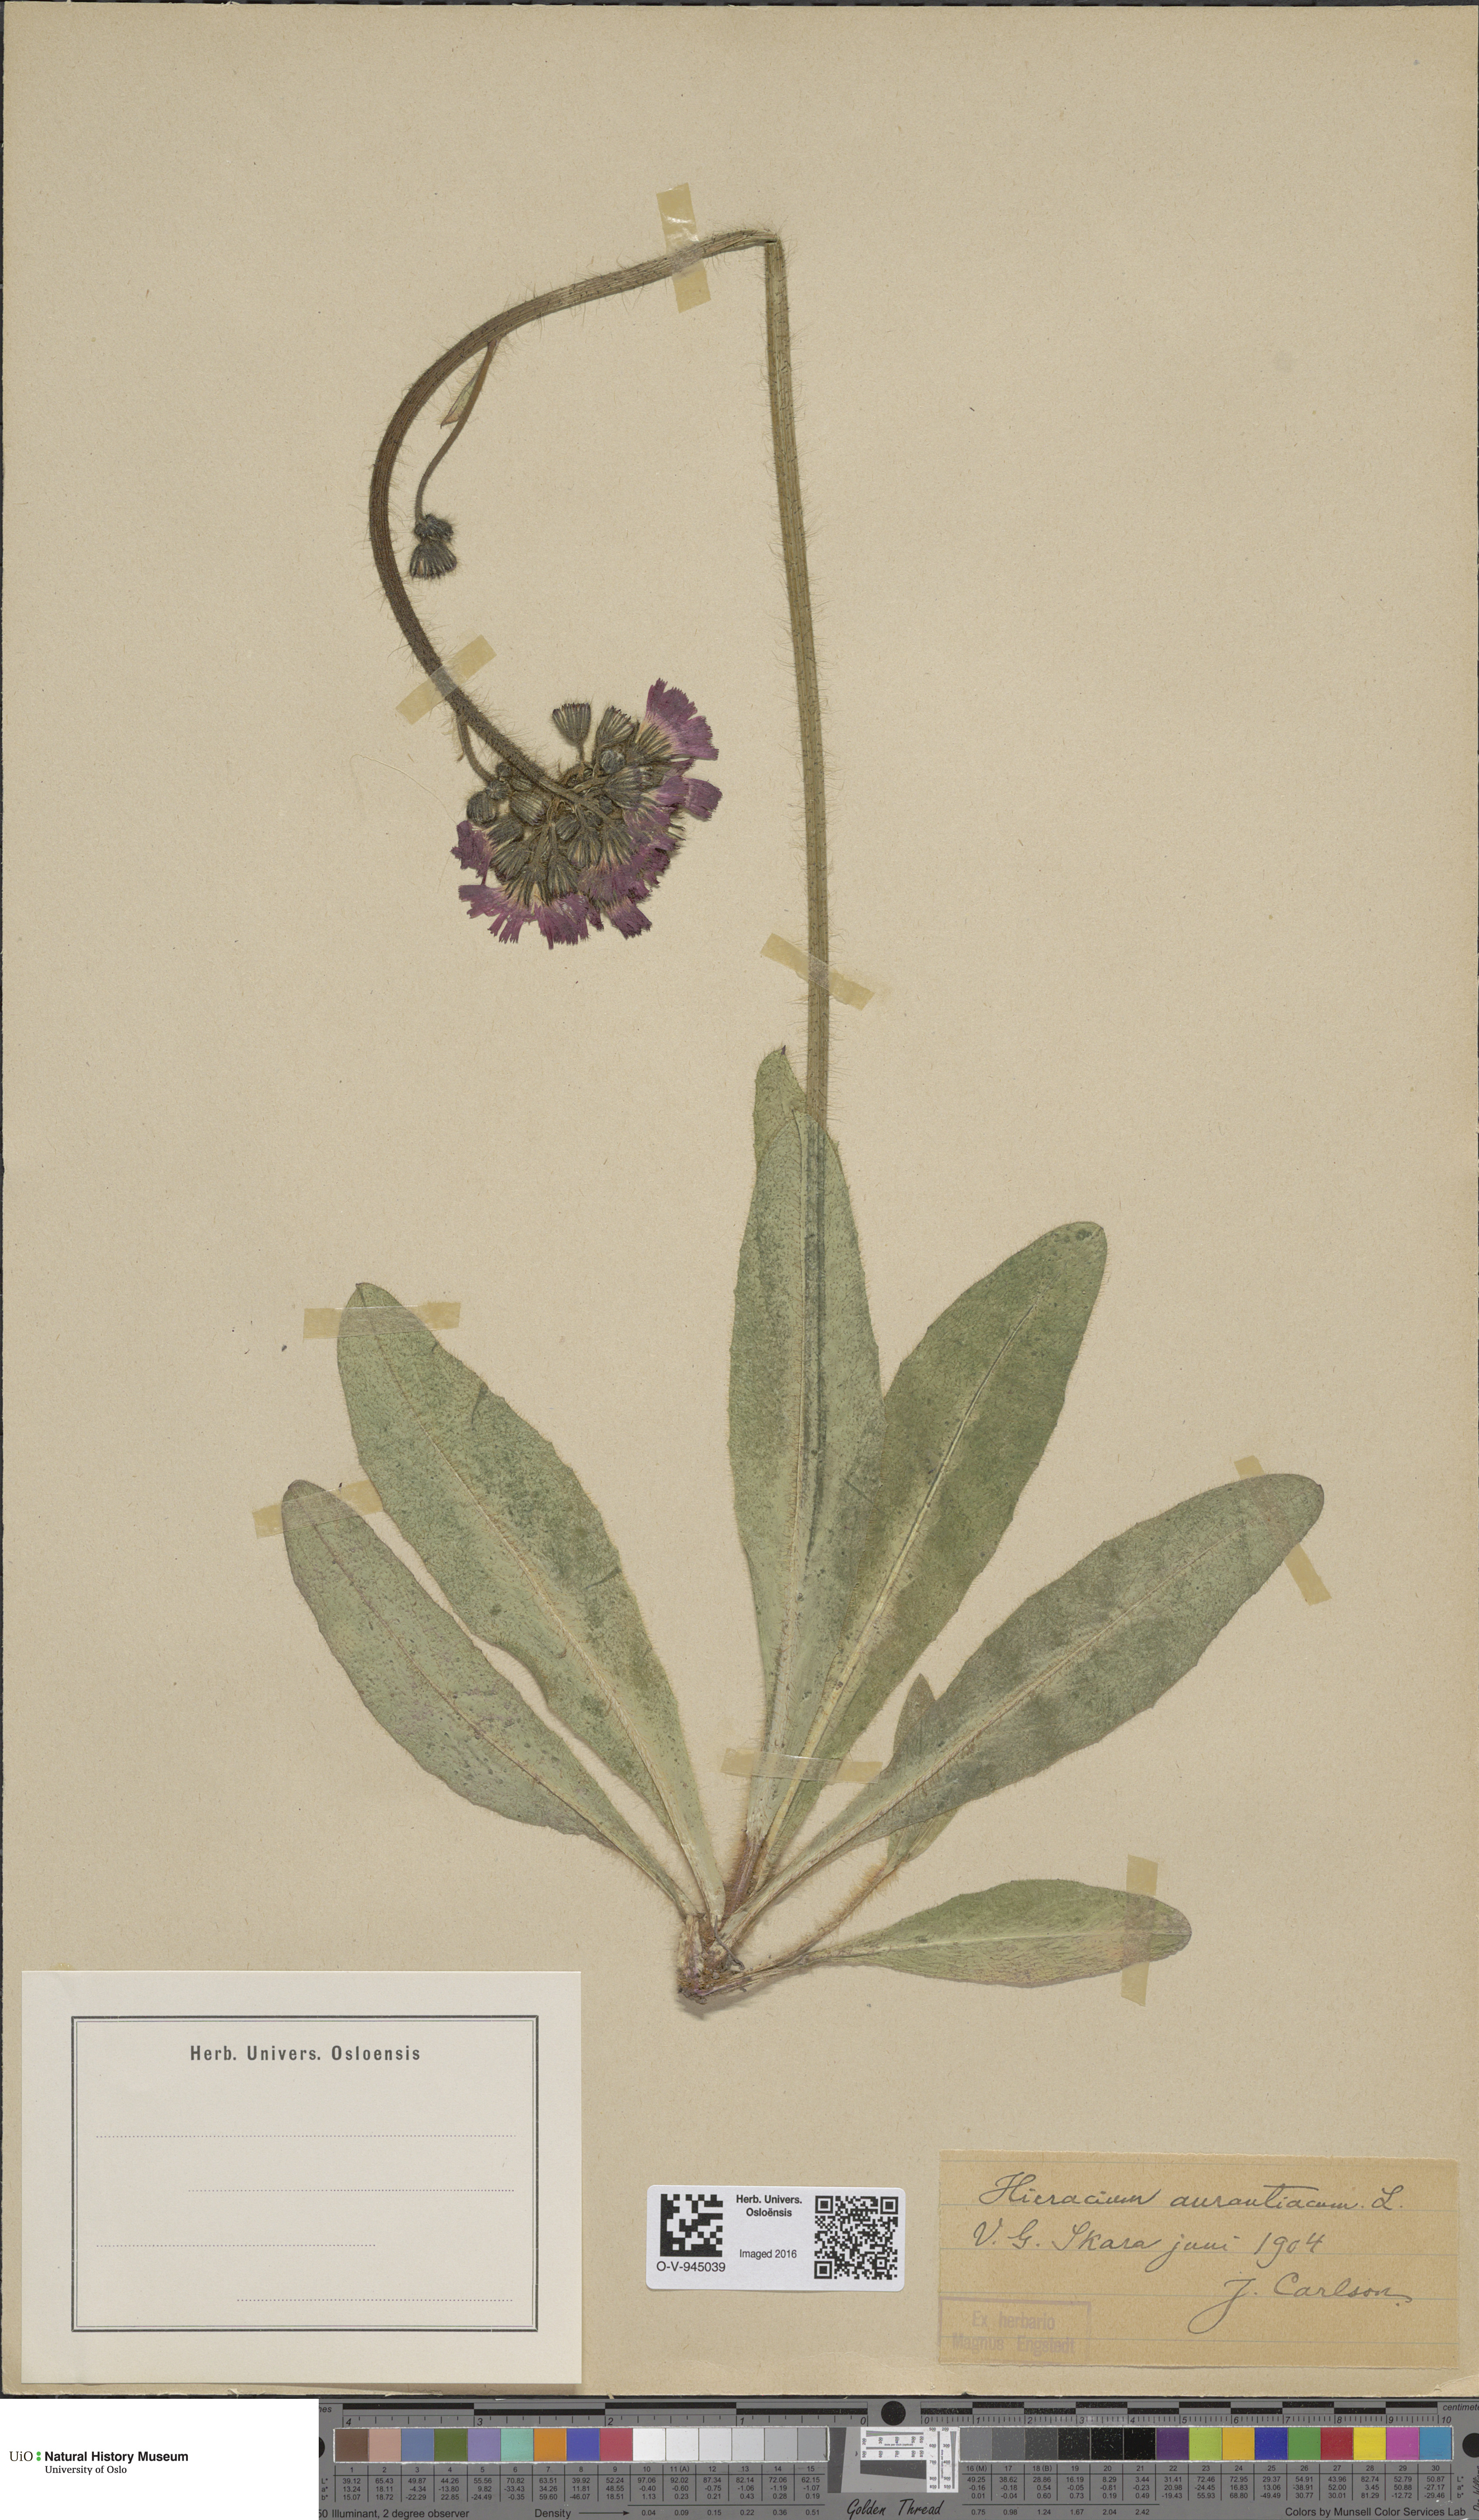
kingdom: Plantae
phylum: Tracheophyta
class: Magnoliopsida
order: Asterales
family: Asteraceae
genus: Pilosella
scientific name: Pilosella aurantiaca
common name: Fox-and-cubs
